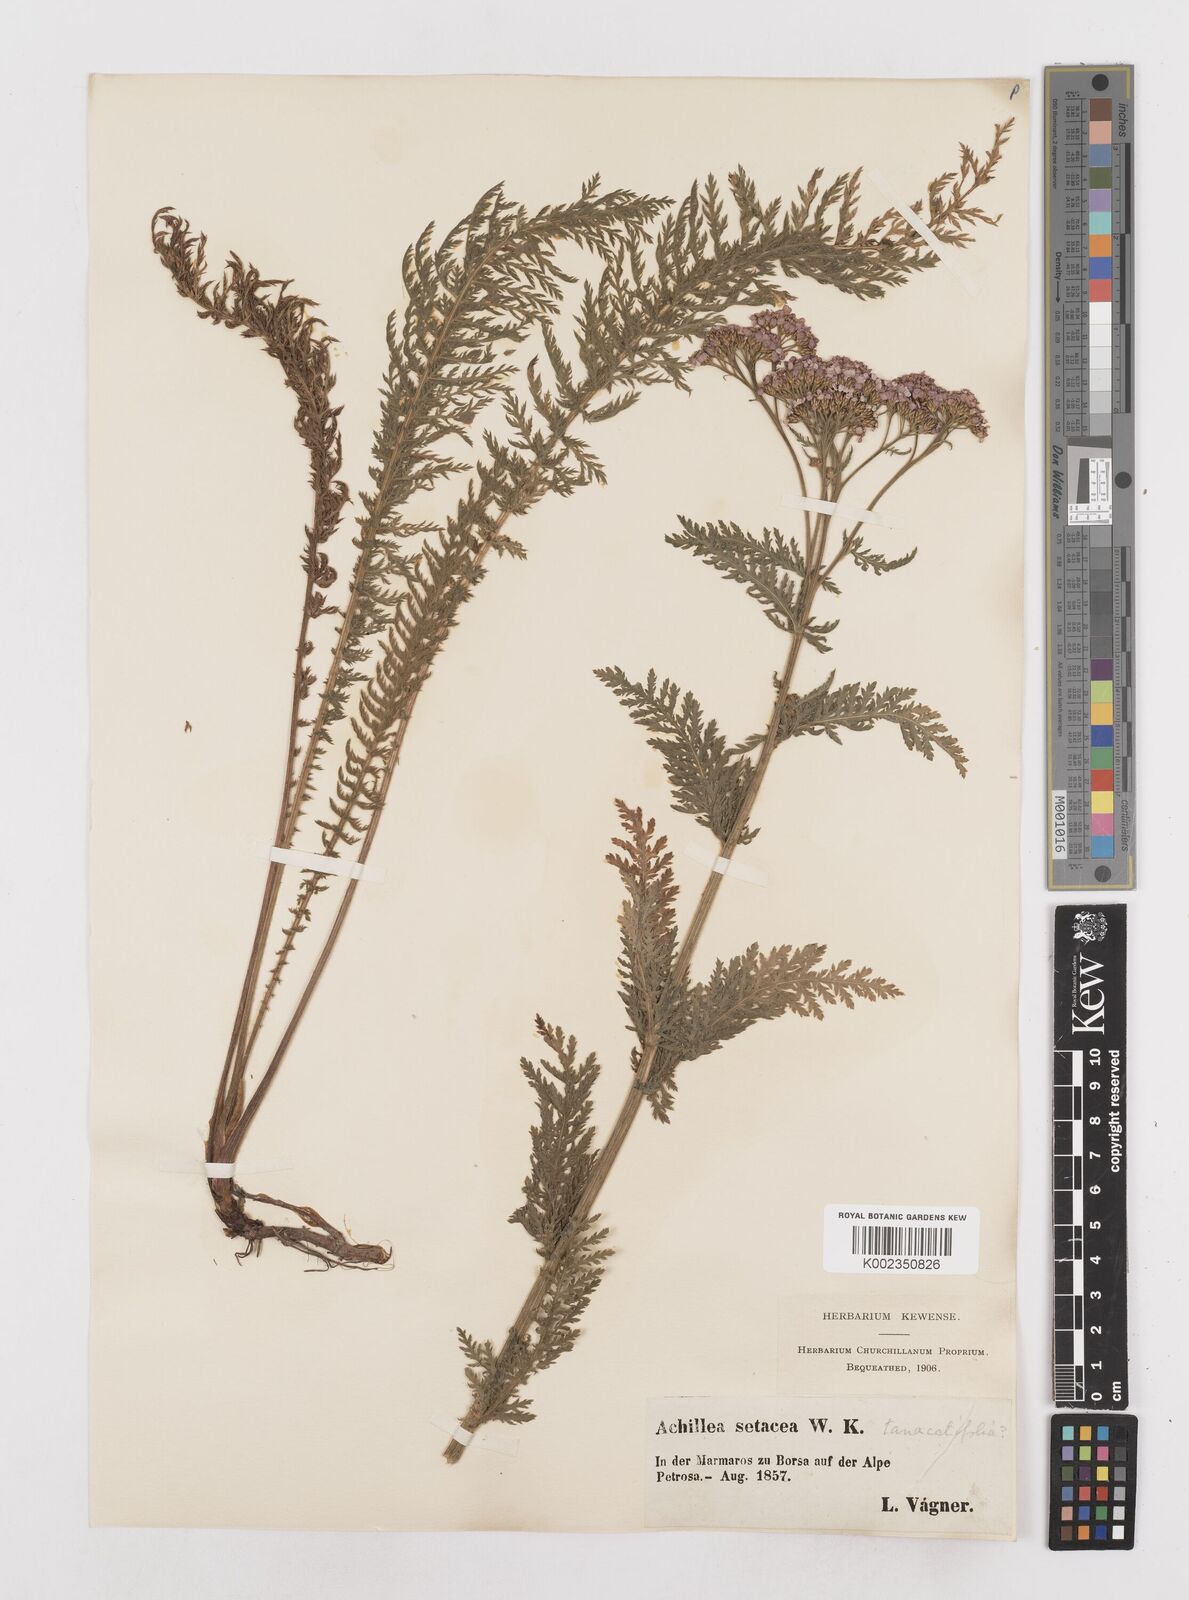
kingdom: Plantae
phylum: Tracheophyta
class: Magnoliopsida
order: Asterales
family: Asteraceae
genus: Achillea
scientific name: Achillea distans
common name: Tall yarrow
